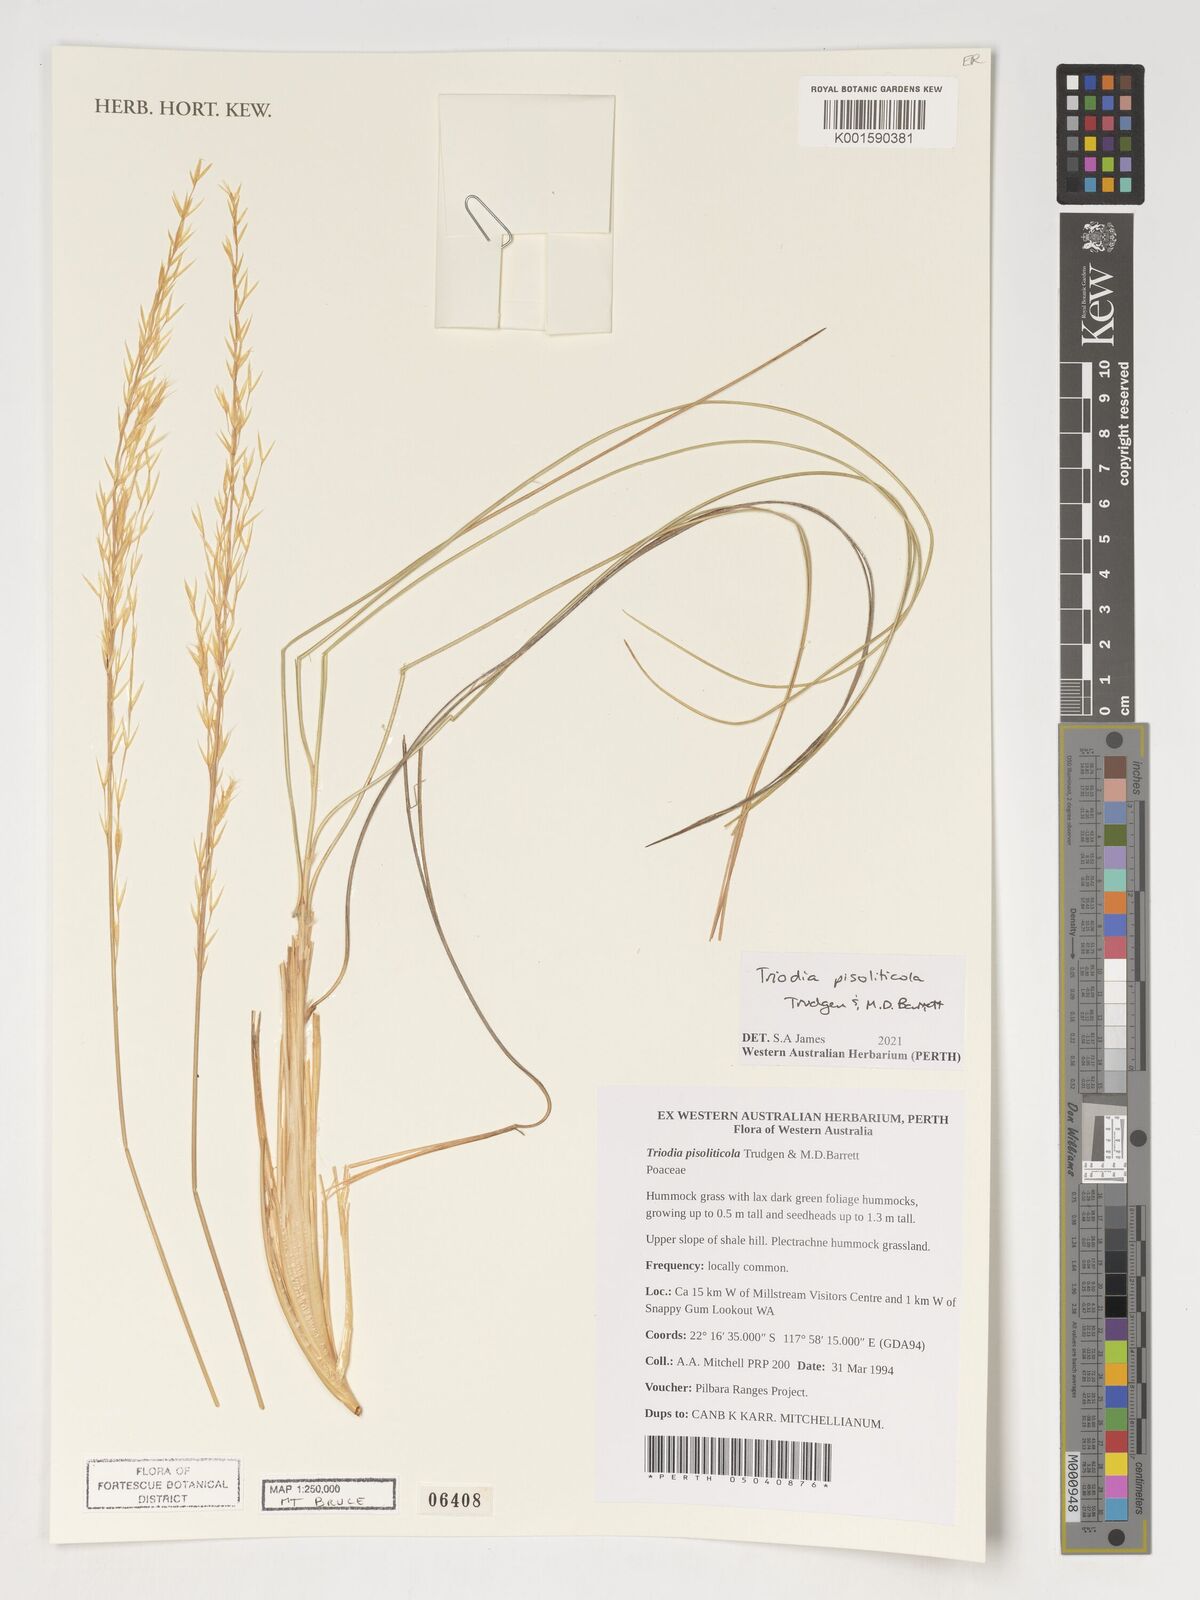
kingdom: Plantae
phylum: Tracheophyta
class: Liliopsida
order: Poales
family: Poaceae
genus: Triodia
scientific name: Triodia pisoliticola
